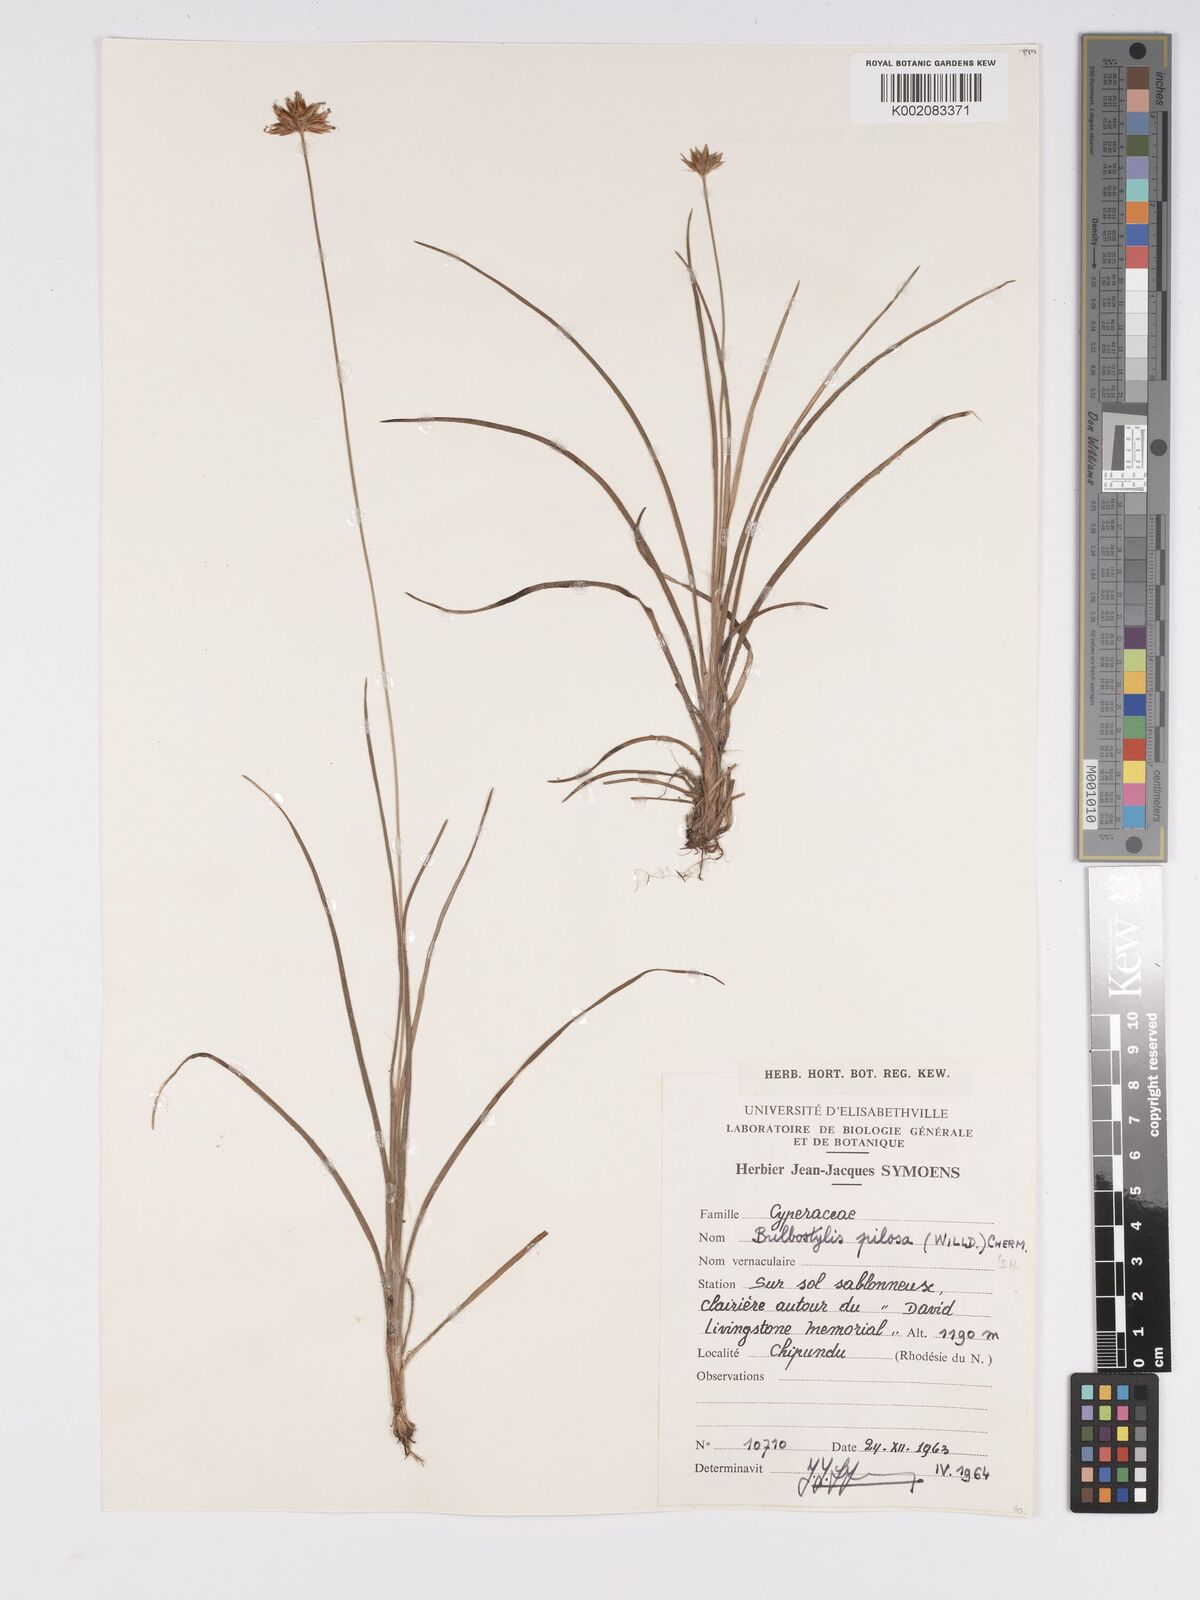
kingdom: Plantae
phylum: Tracheophyta
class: Liliopsida
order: Poales
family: Cyperaceae
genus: Bulbostylis
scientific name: Bulbostylis pilosa
